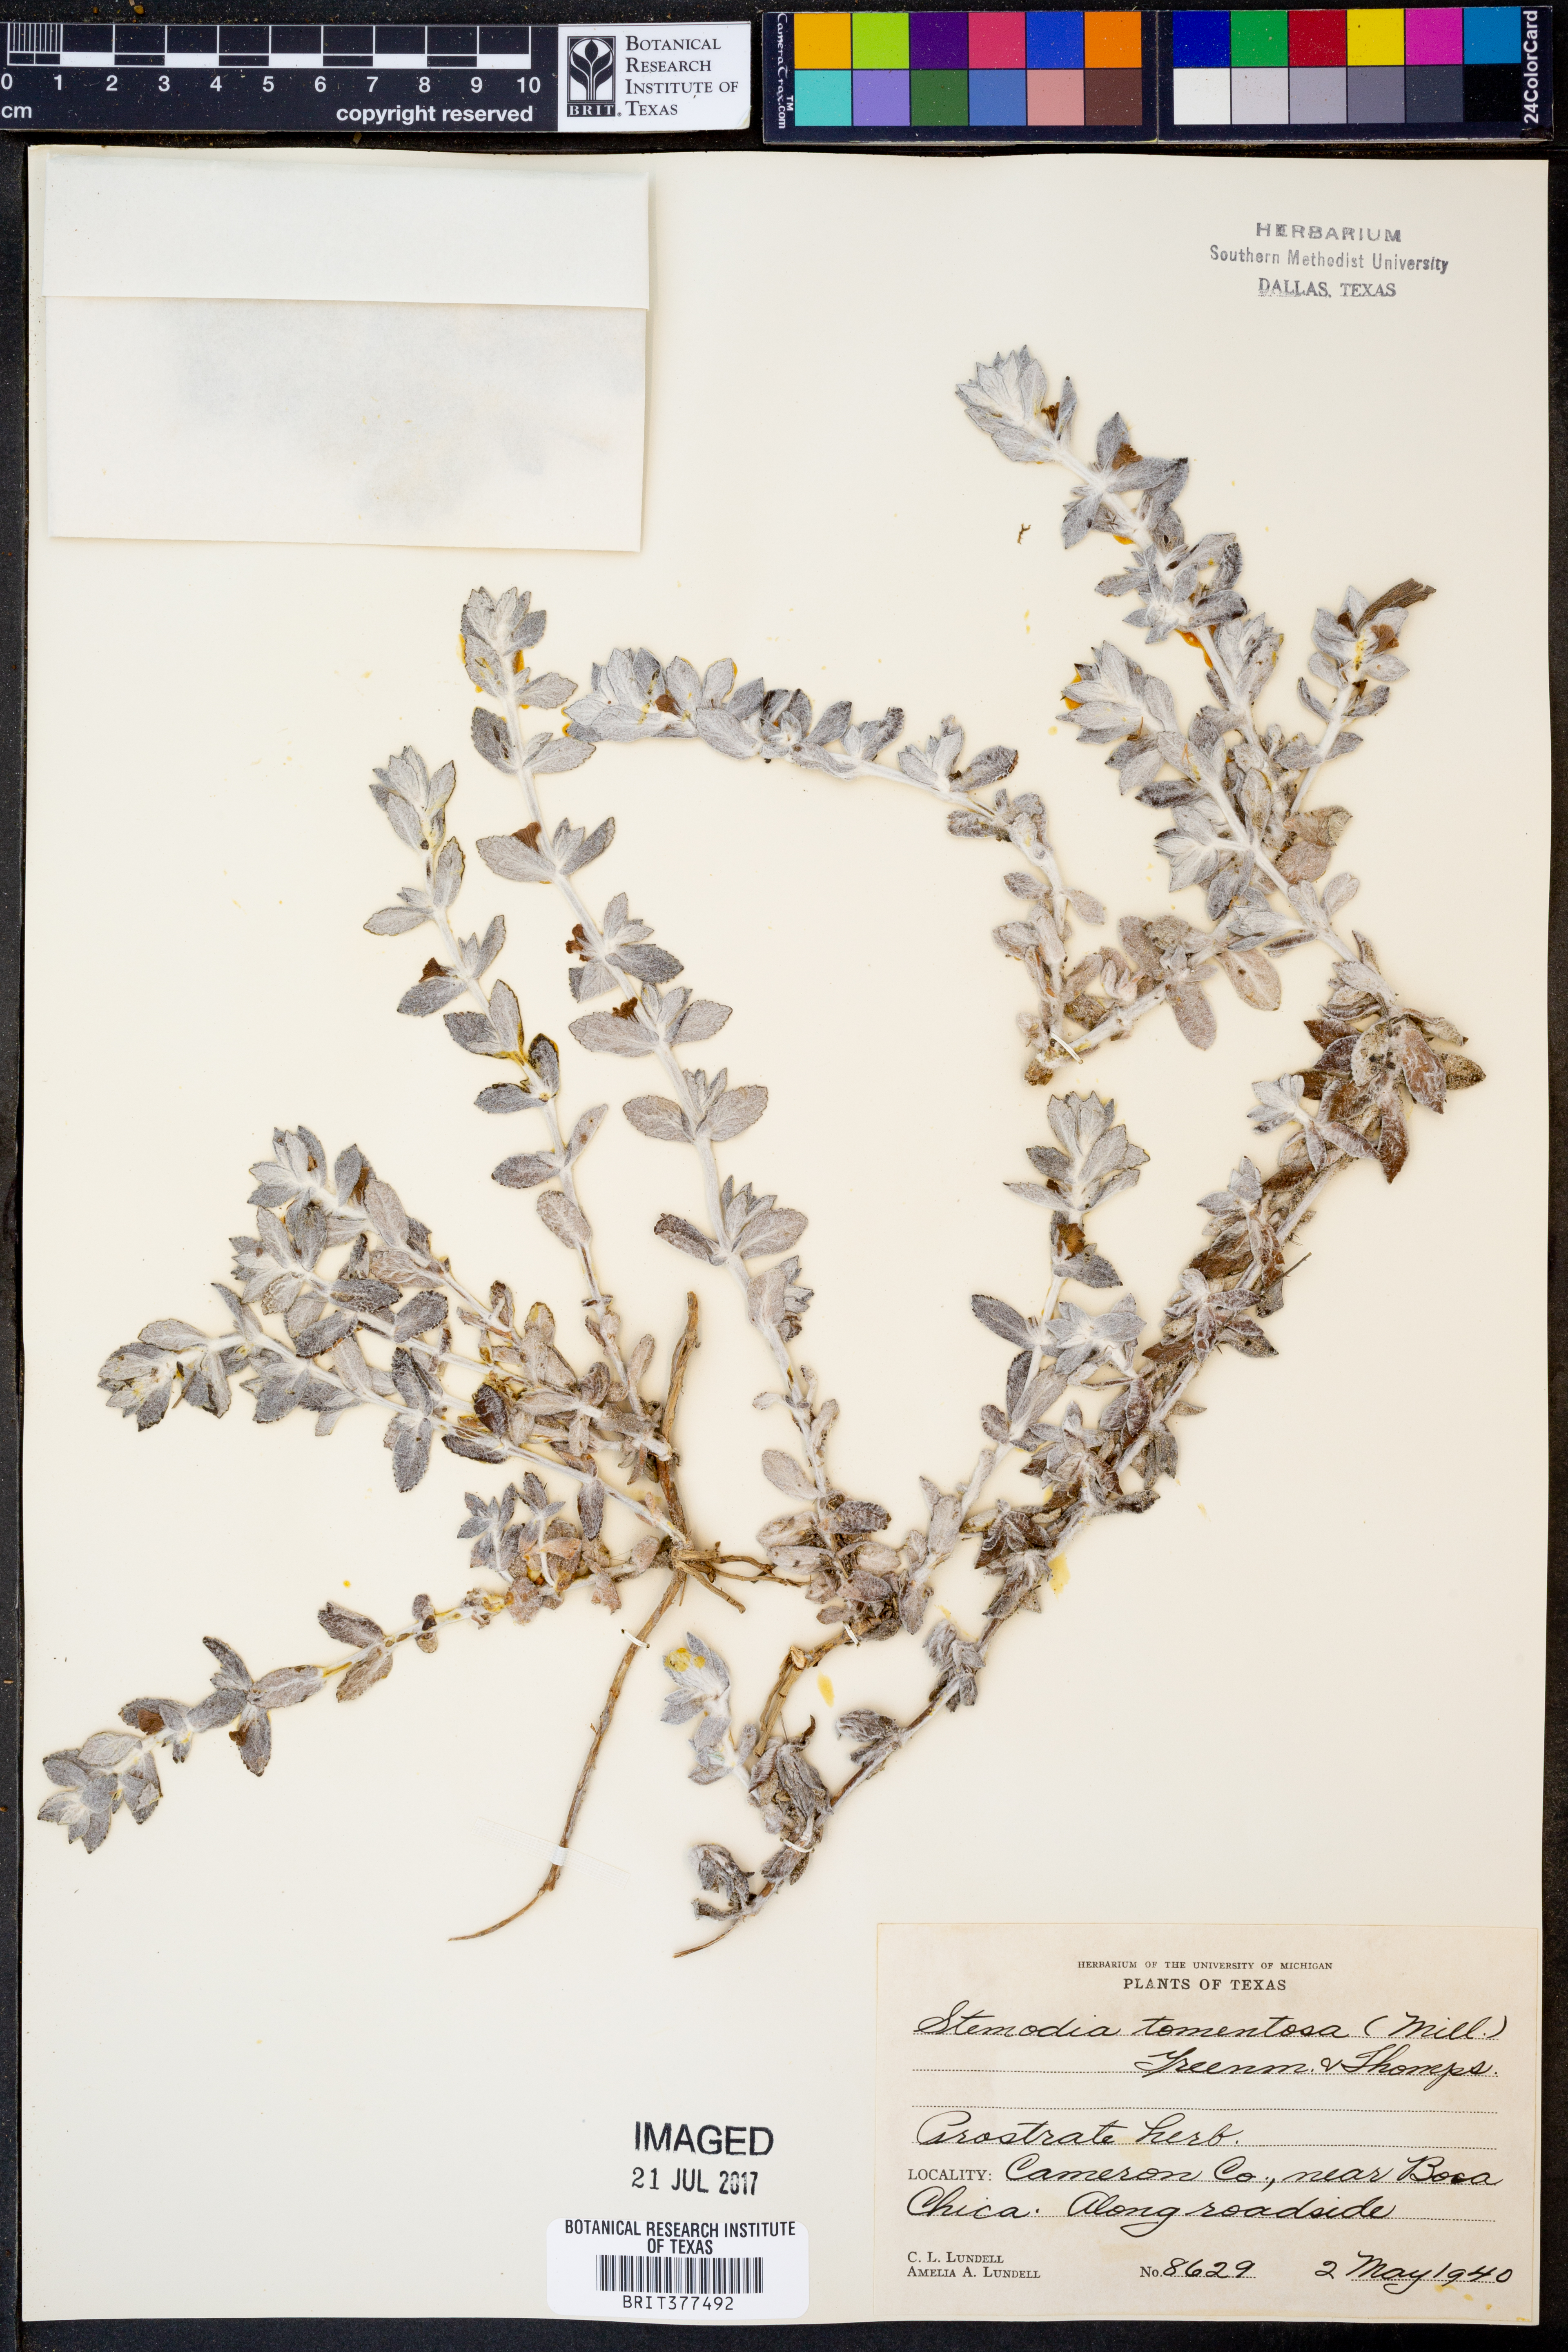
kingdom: Plantae
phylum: Tracheophyta
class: Magnoliopsida
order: Lamiales
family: Plantaginaceae
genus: Stemodia
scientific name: Stemodia lanata
